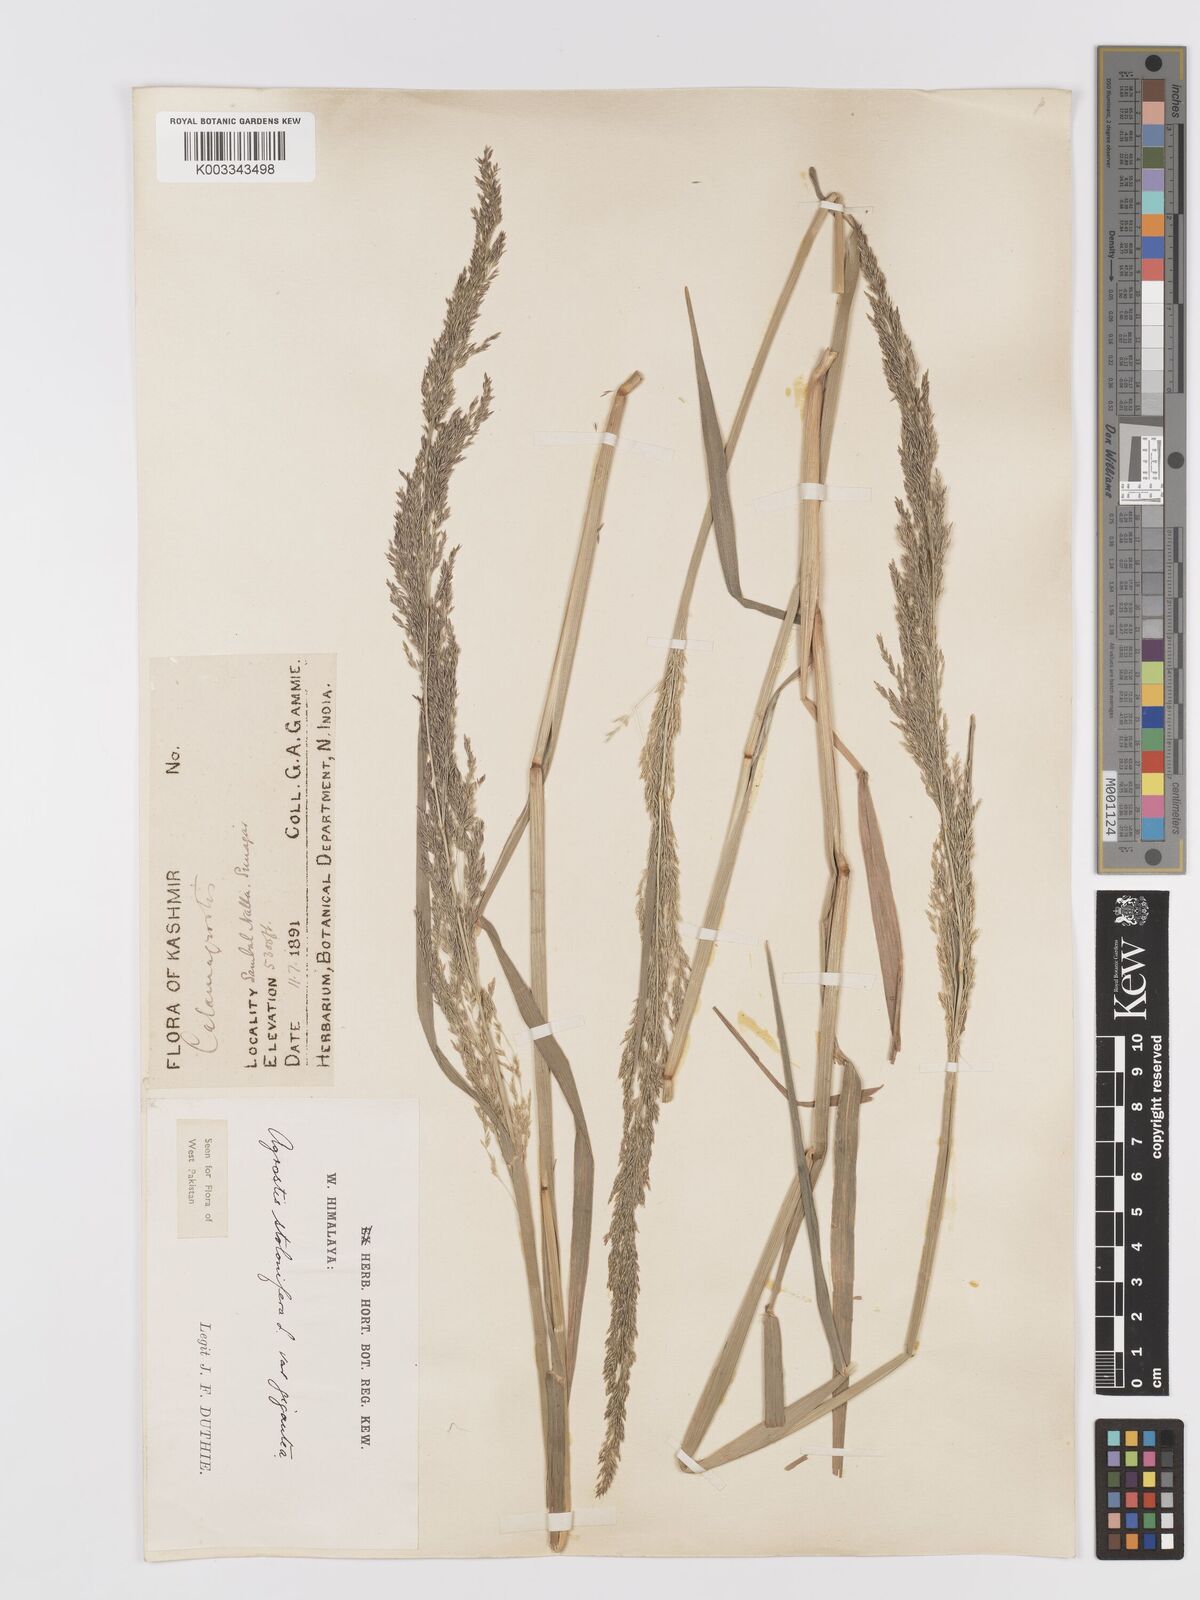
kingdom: Plantae
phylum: Tracheophyta
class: Liliopsida
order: Poales
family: Poaceae
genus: Agrostis
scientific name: Agrostis gigantea
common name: Black bent
